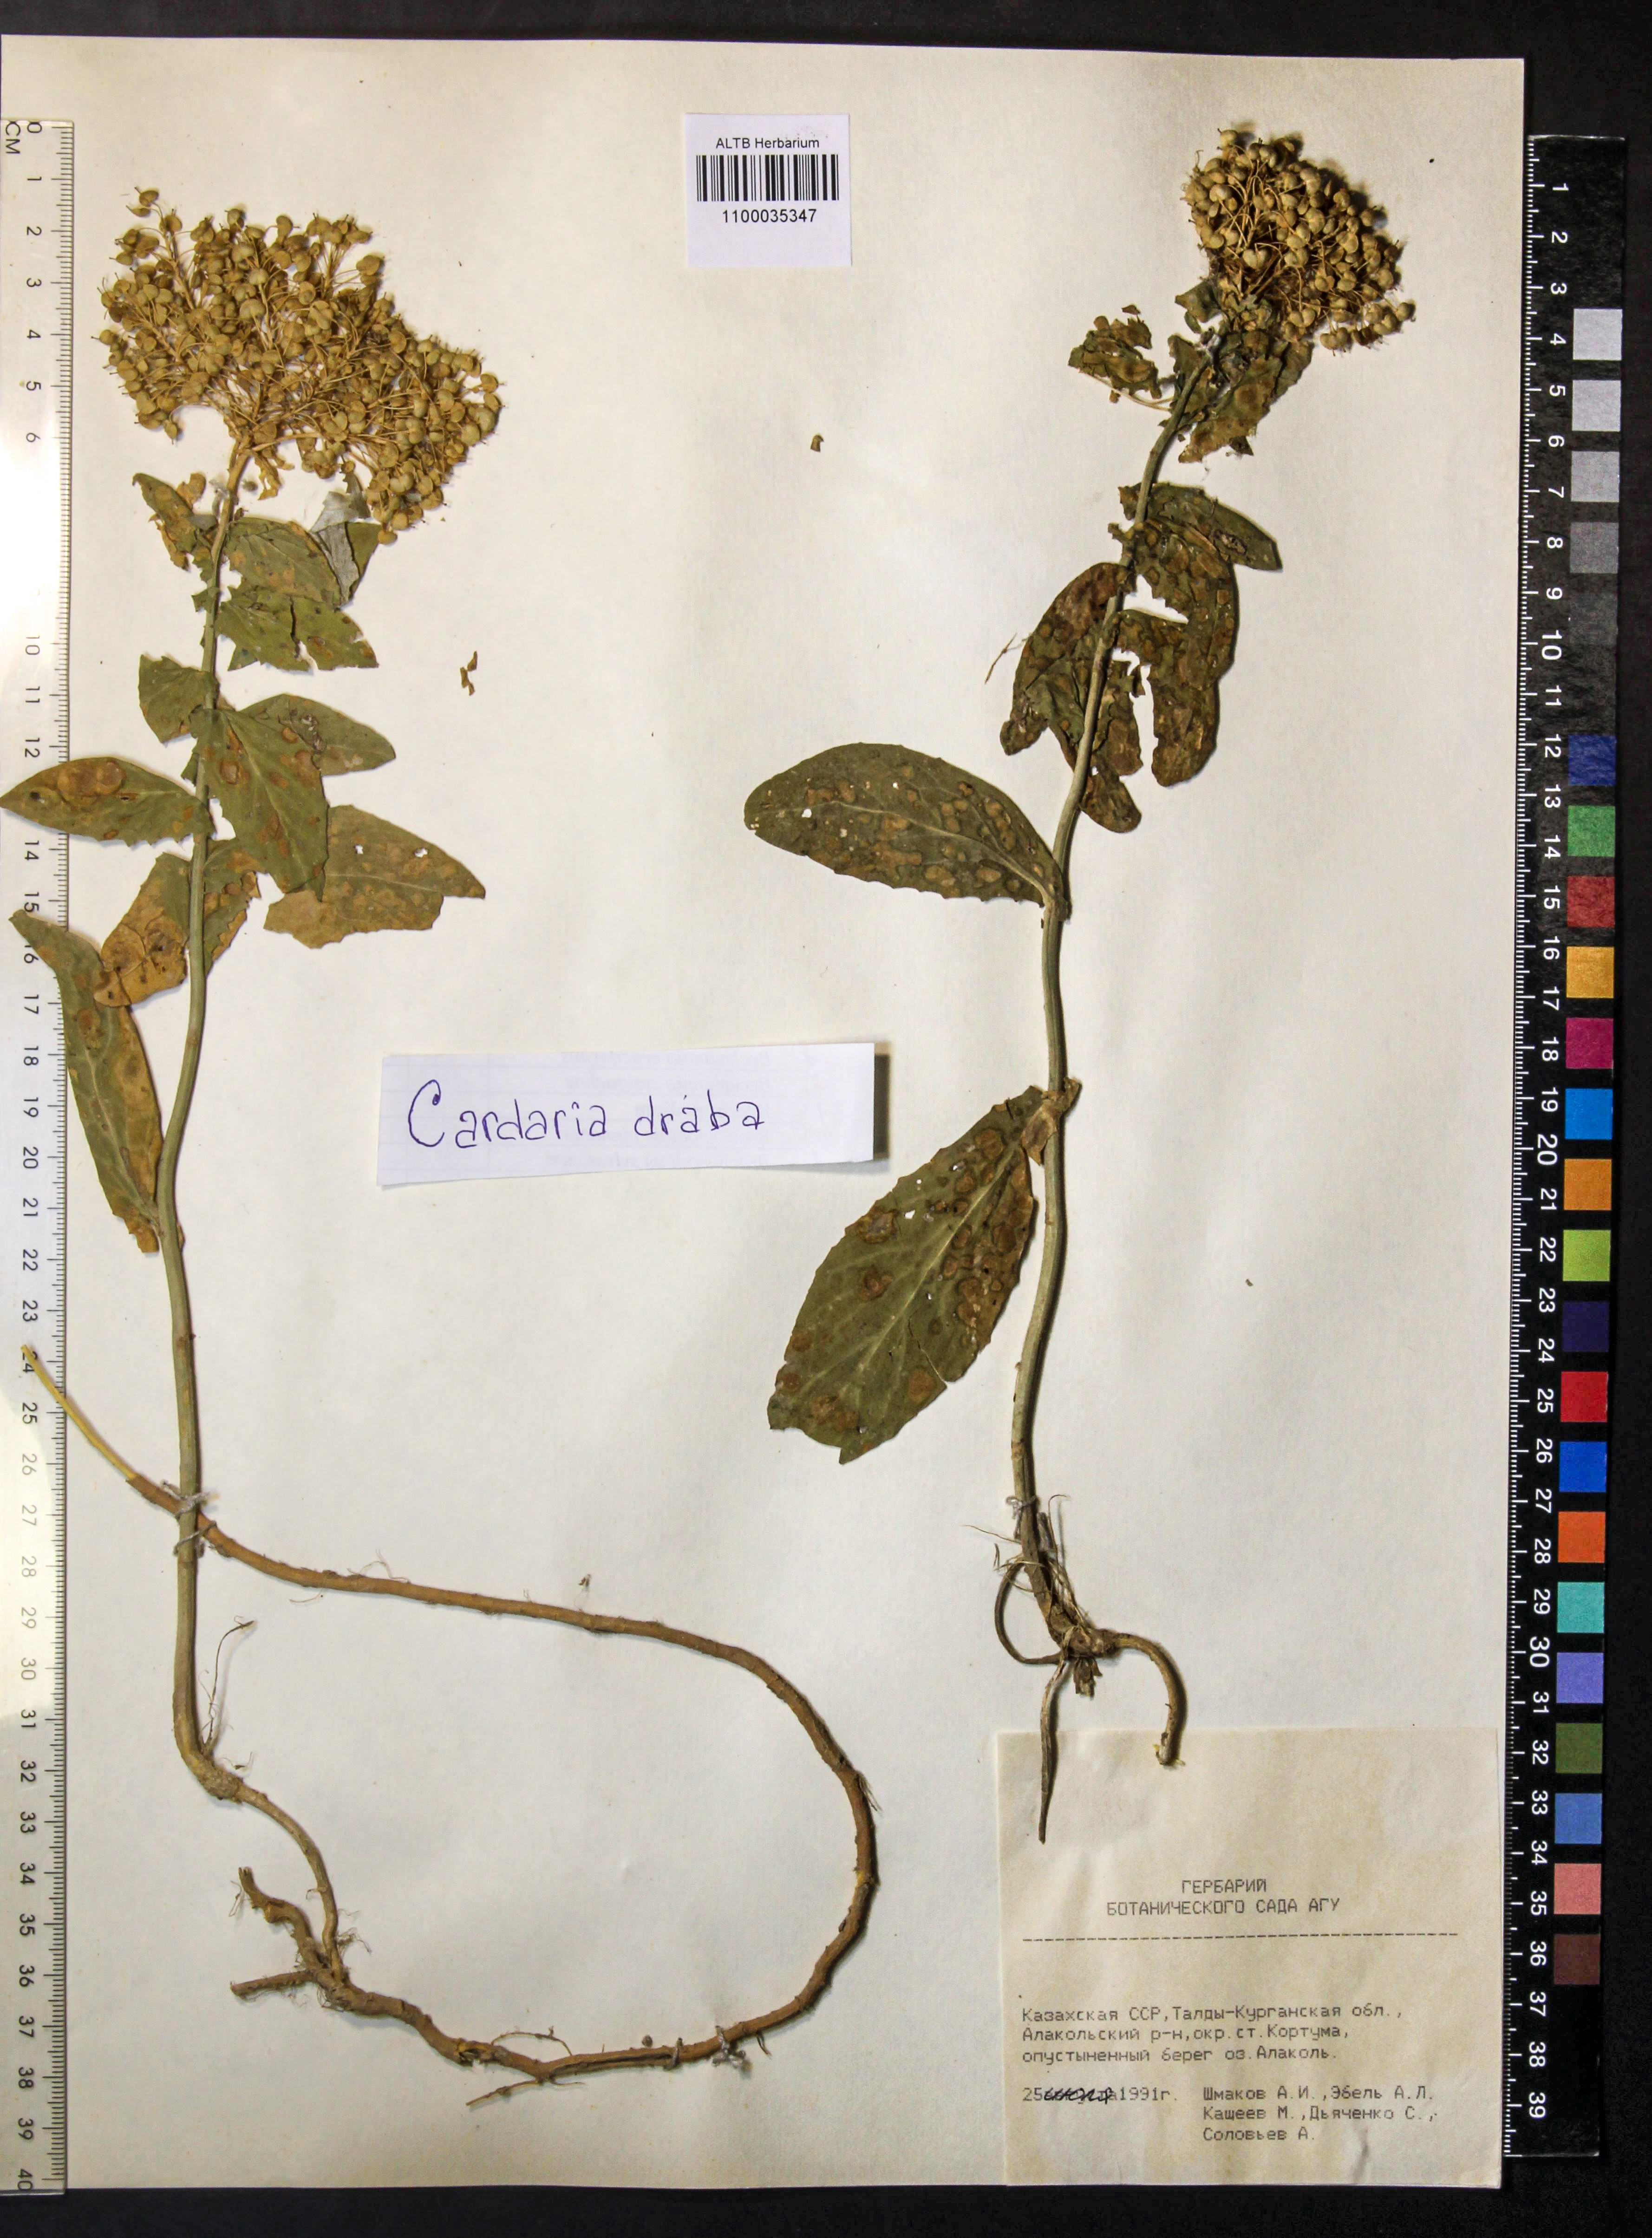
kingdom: Plantae
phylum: Tracheophyta
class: Magnoliopsida
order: Brassicales
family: Brassicaceae
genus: Lepidium
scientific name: Lepidium draba
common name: Hoary cress
